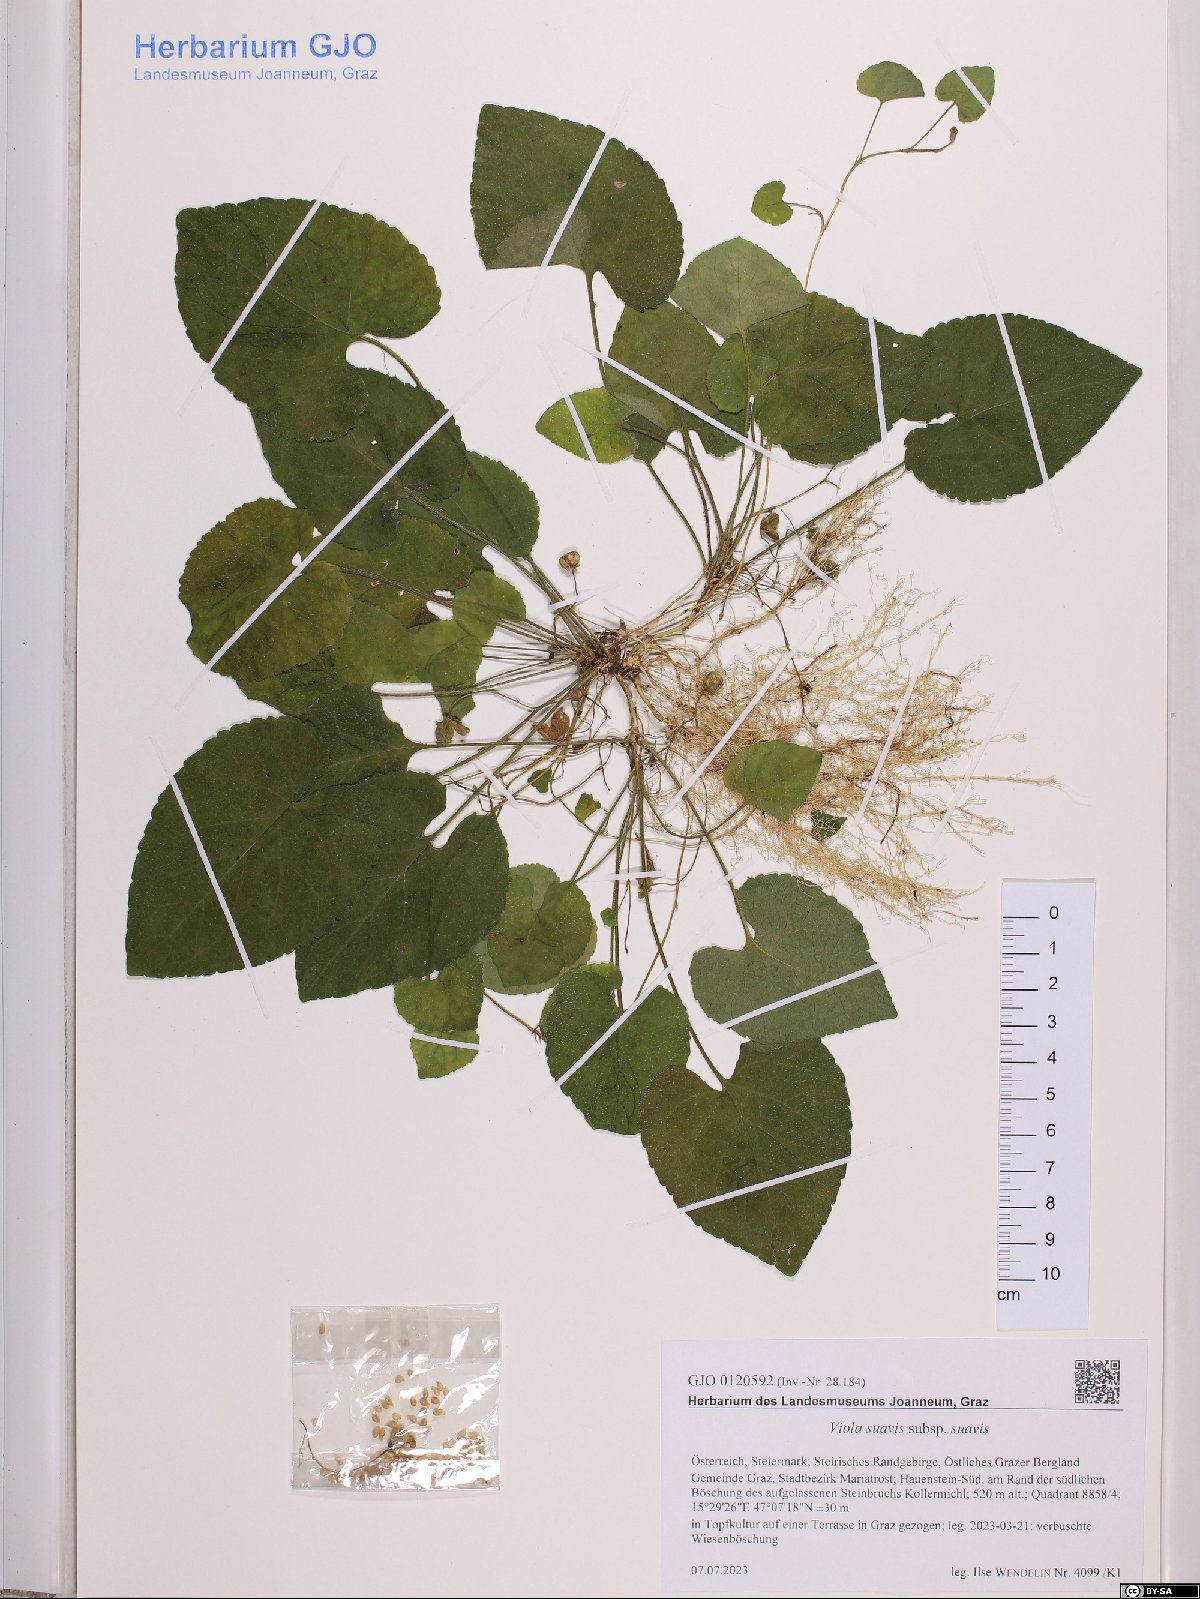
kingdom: Plantae
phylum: Tracheophyta
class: Magnoliopsida
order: Malpighiales
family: Violaceae
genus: Viola
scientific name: Viola suavis
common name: Russian violet
